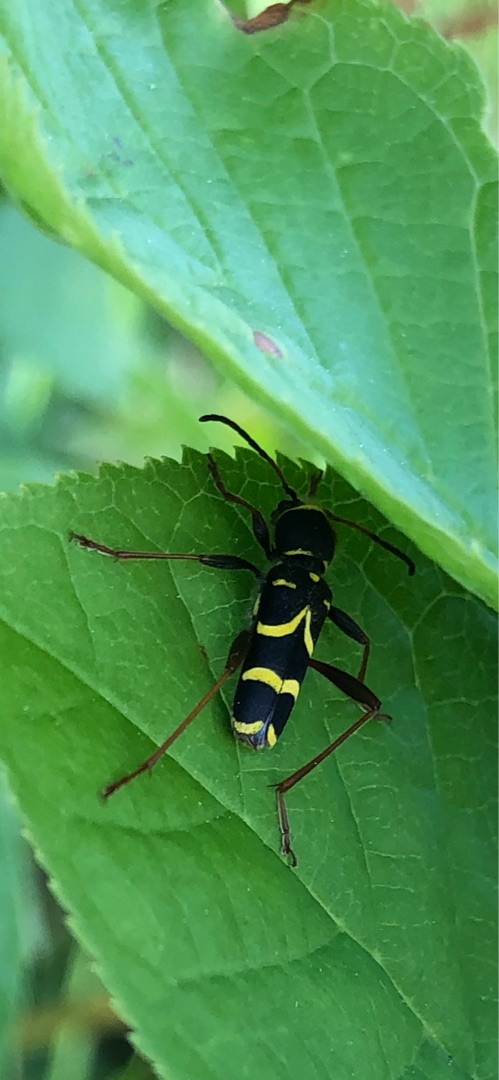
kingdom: Animalia
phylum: Arthropoda
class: Insecta
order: Coleoptera
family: Cerambycidae
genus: Clytus
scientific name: Clytus arietis
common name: Lille hvepsebuk
